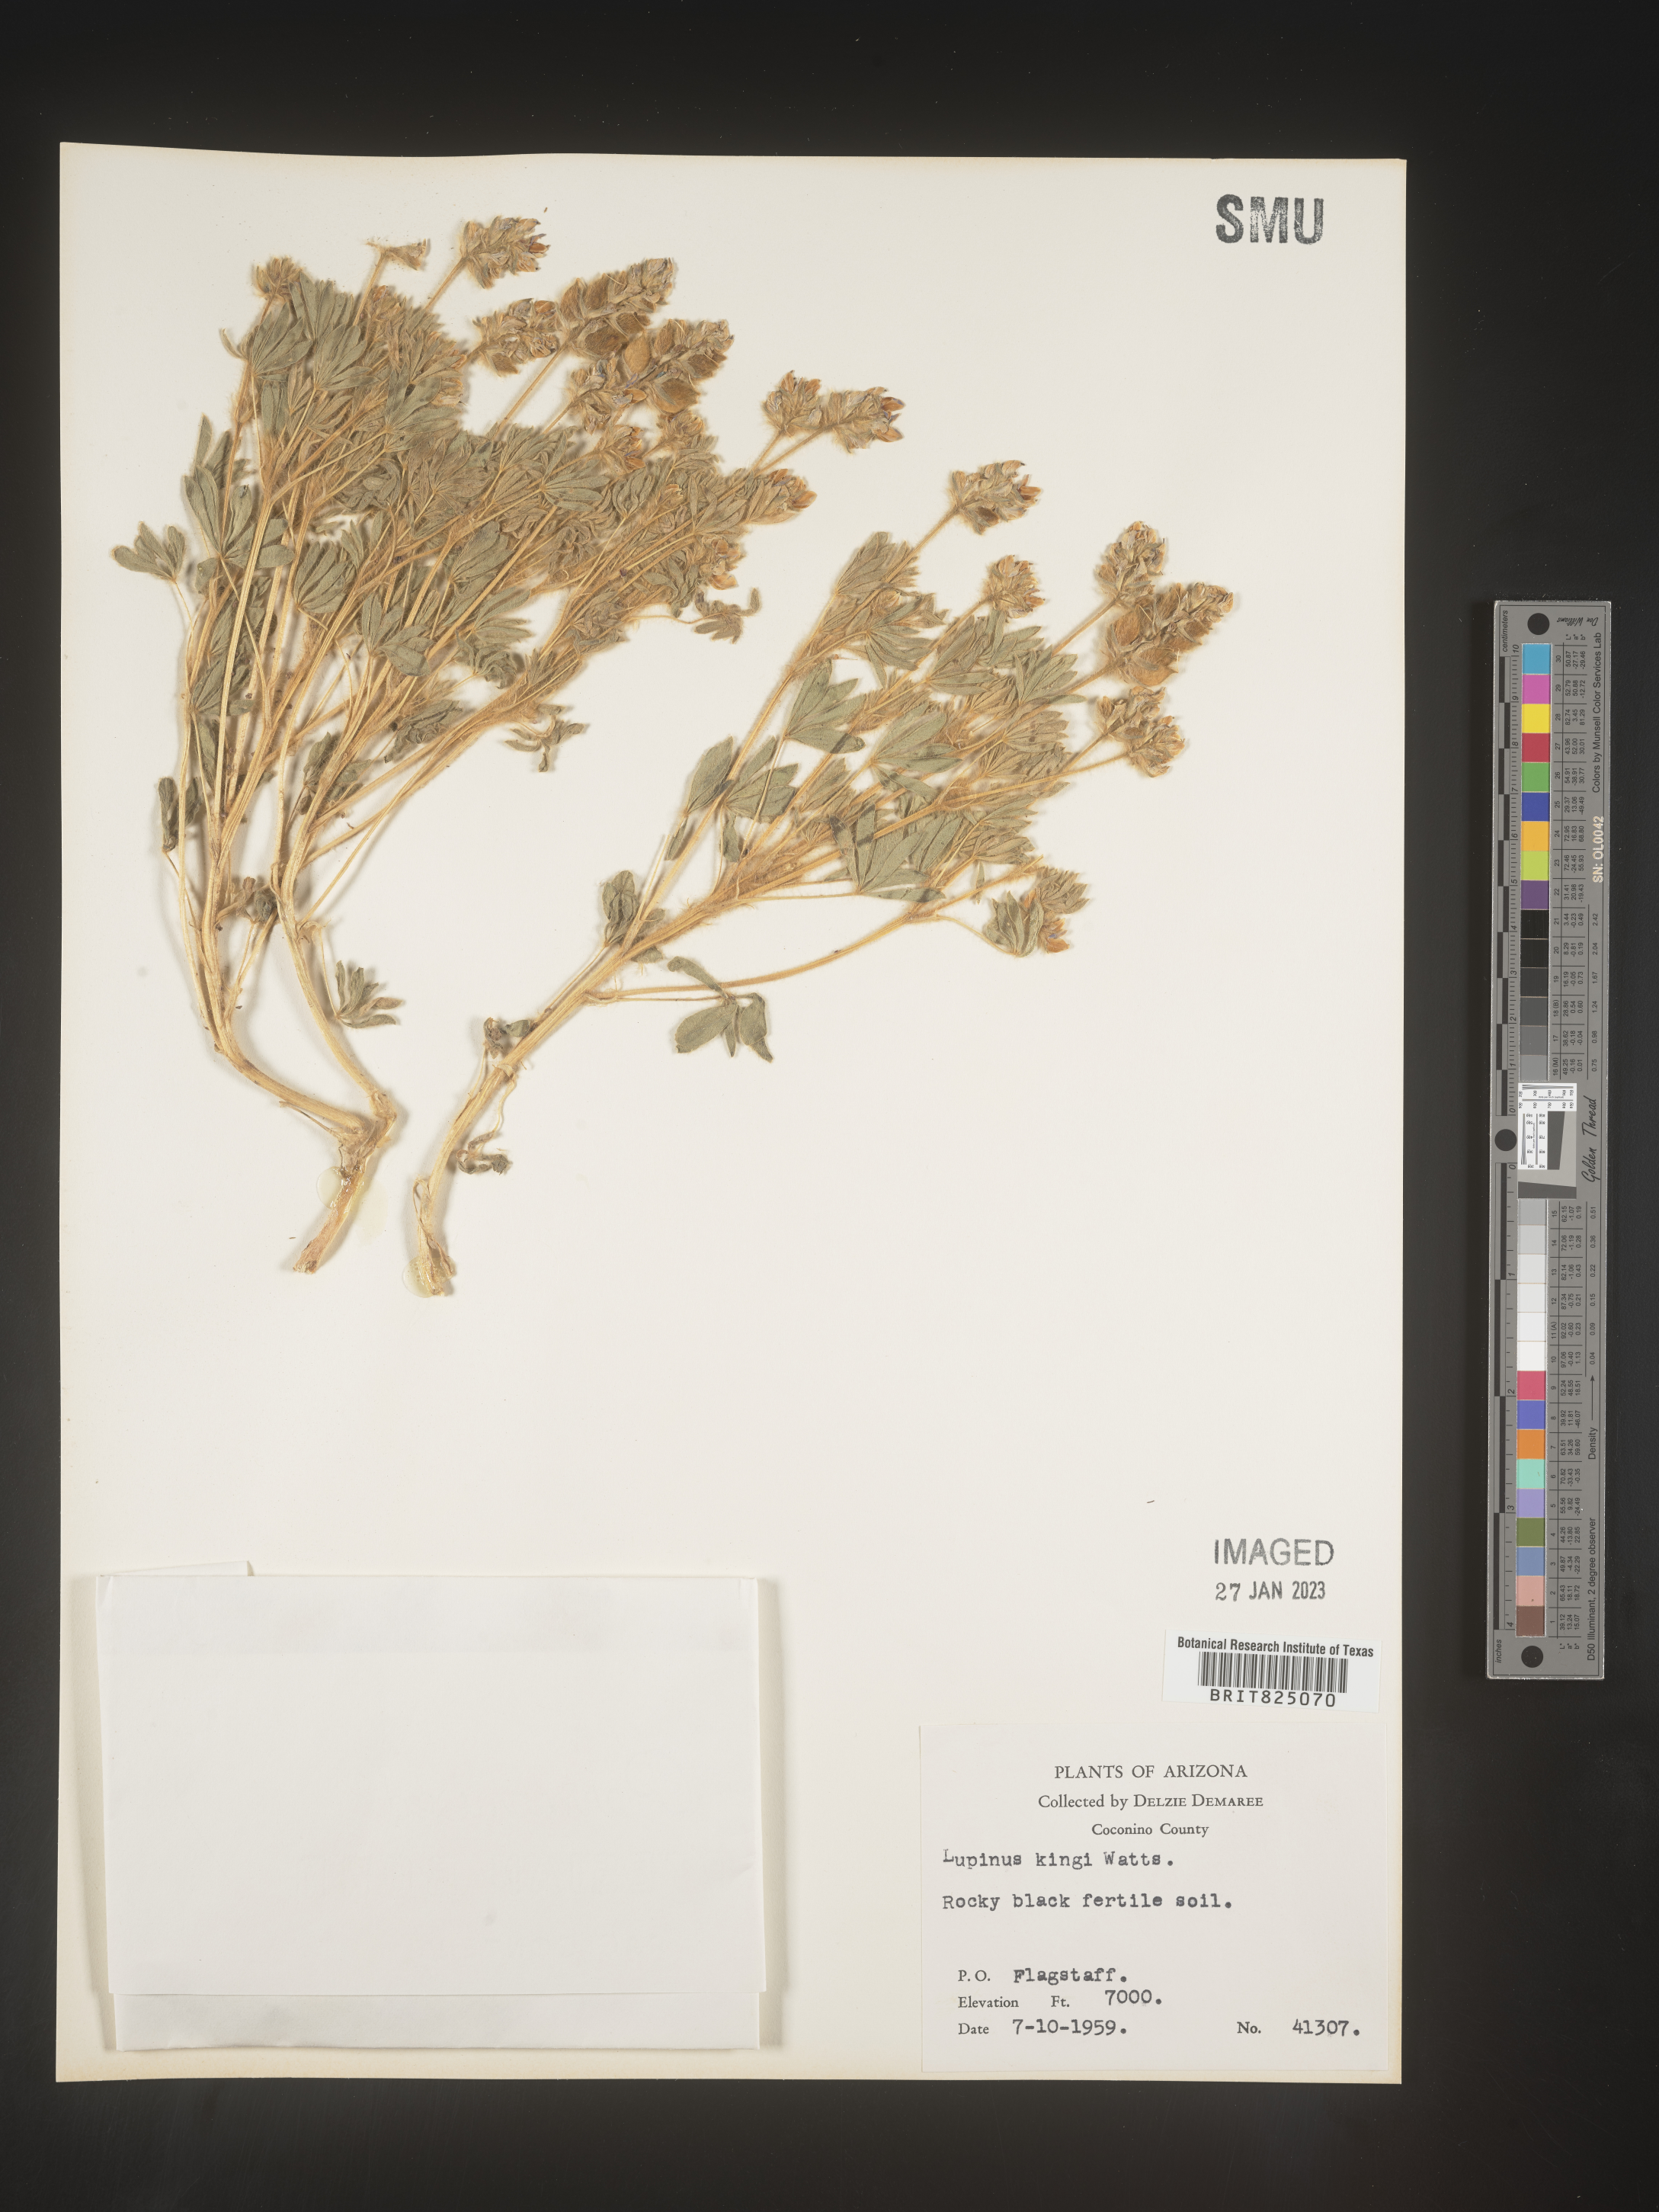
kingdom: Plantae
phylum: Tracheophyta
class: Magnoliopsida
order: Fabales
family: Fabaceae
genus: Lupinus
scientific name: Lupinus
